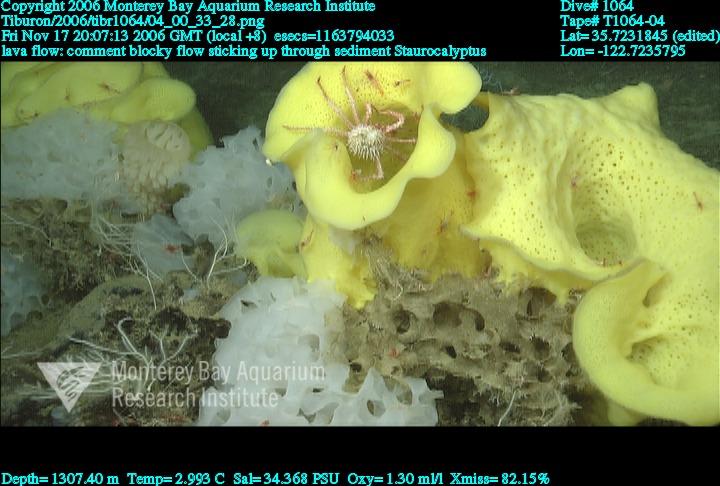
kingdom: Animalia
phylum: Porifera
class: Hexactinellida
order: Lyssacinosida
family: Rossellidae
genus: Staurocalyptus
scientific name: Staurocalyptus
